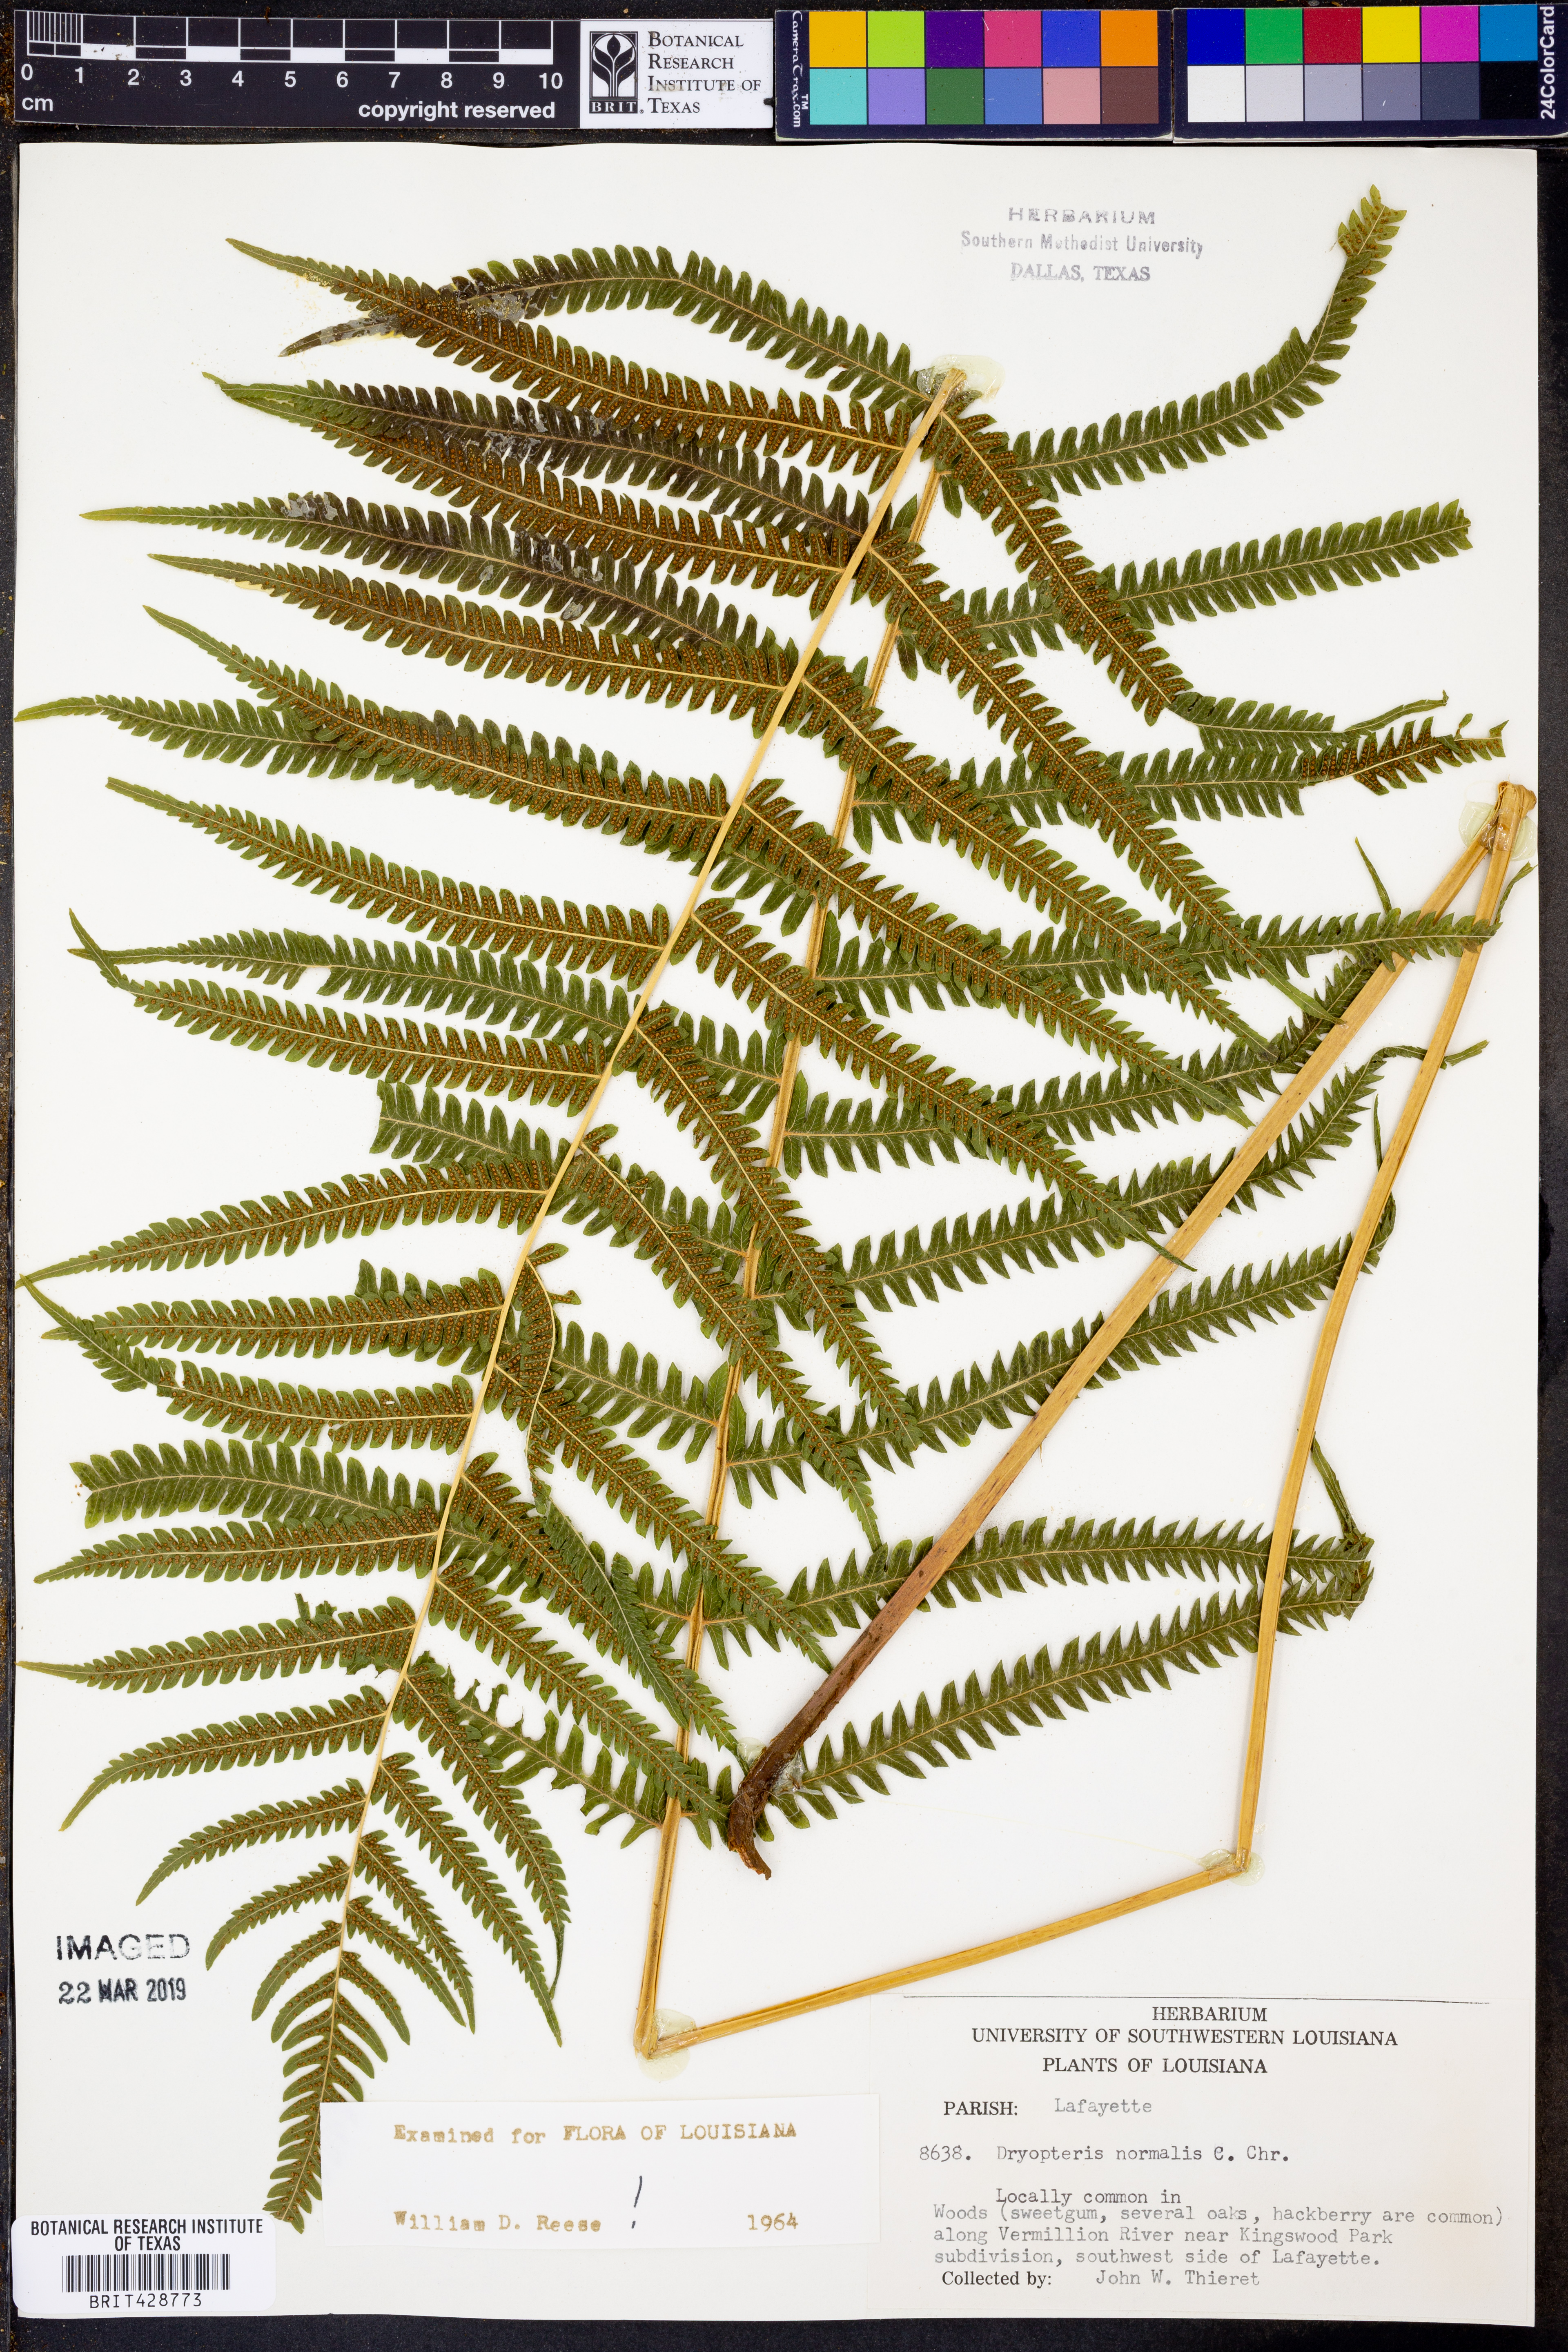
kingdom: Plantae
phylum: Tracheophyta
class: Polypodiopsida
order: Polypodiales
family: Thelypteridaceae
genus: Pelazoneuron
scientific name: Pelazoneuron kunthii
